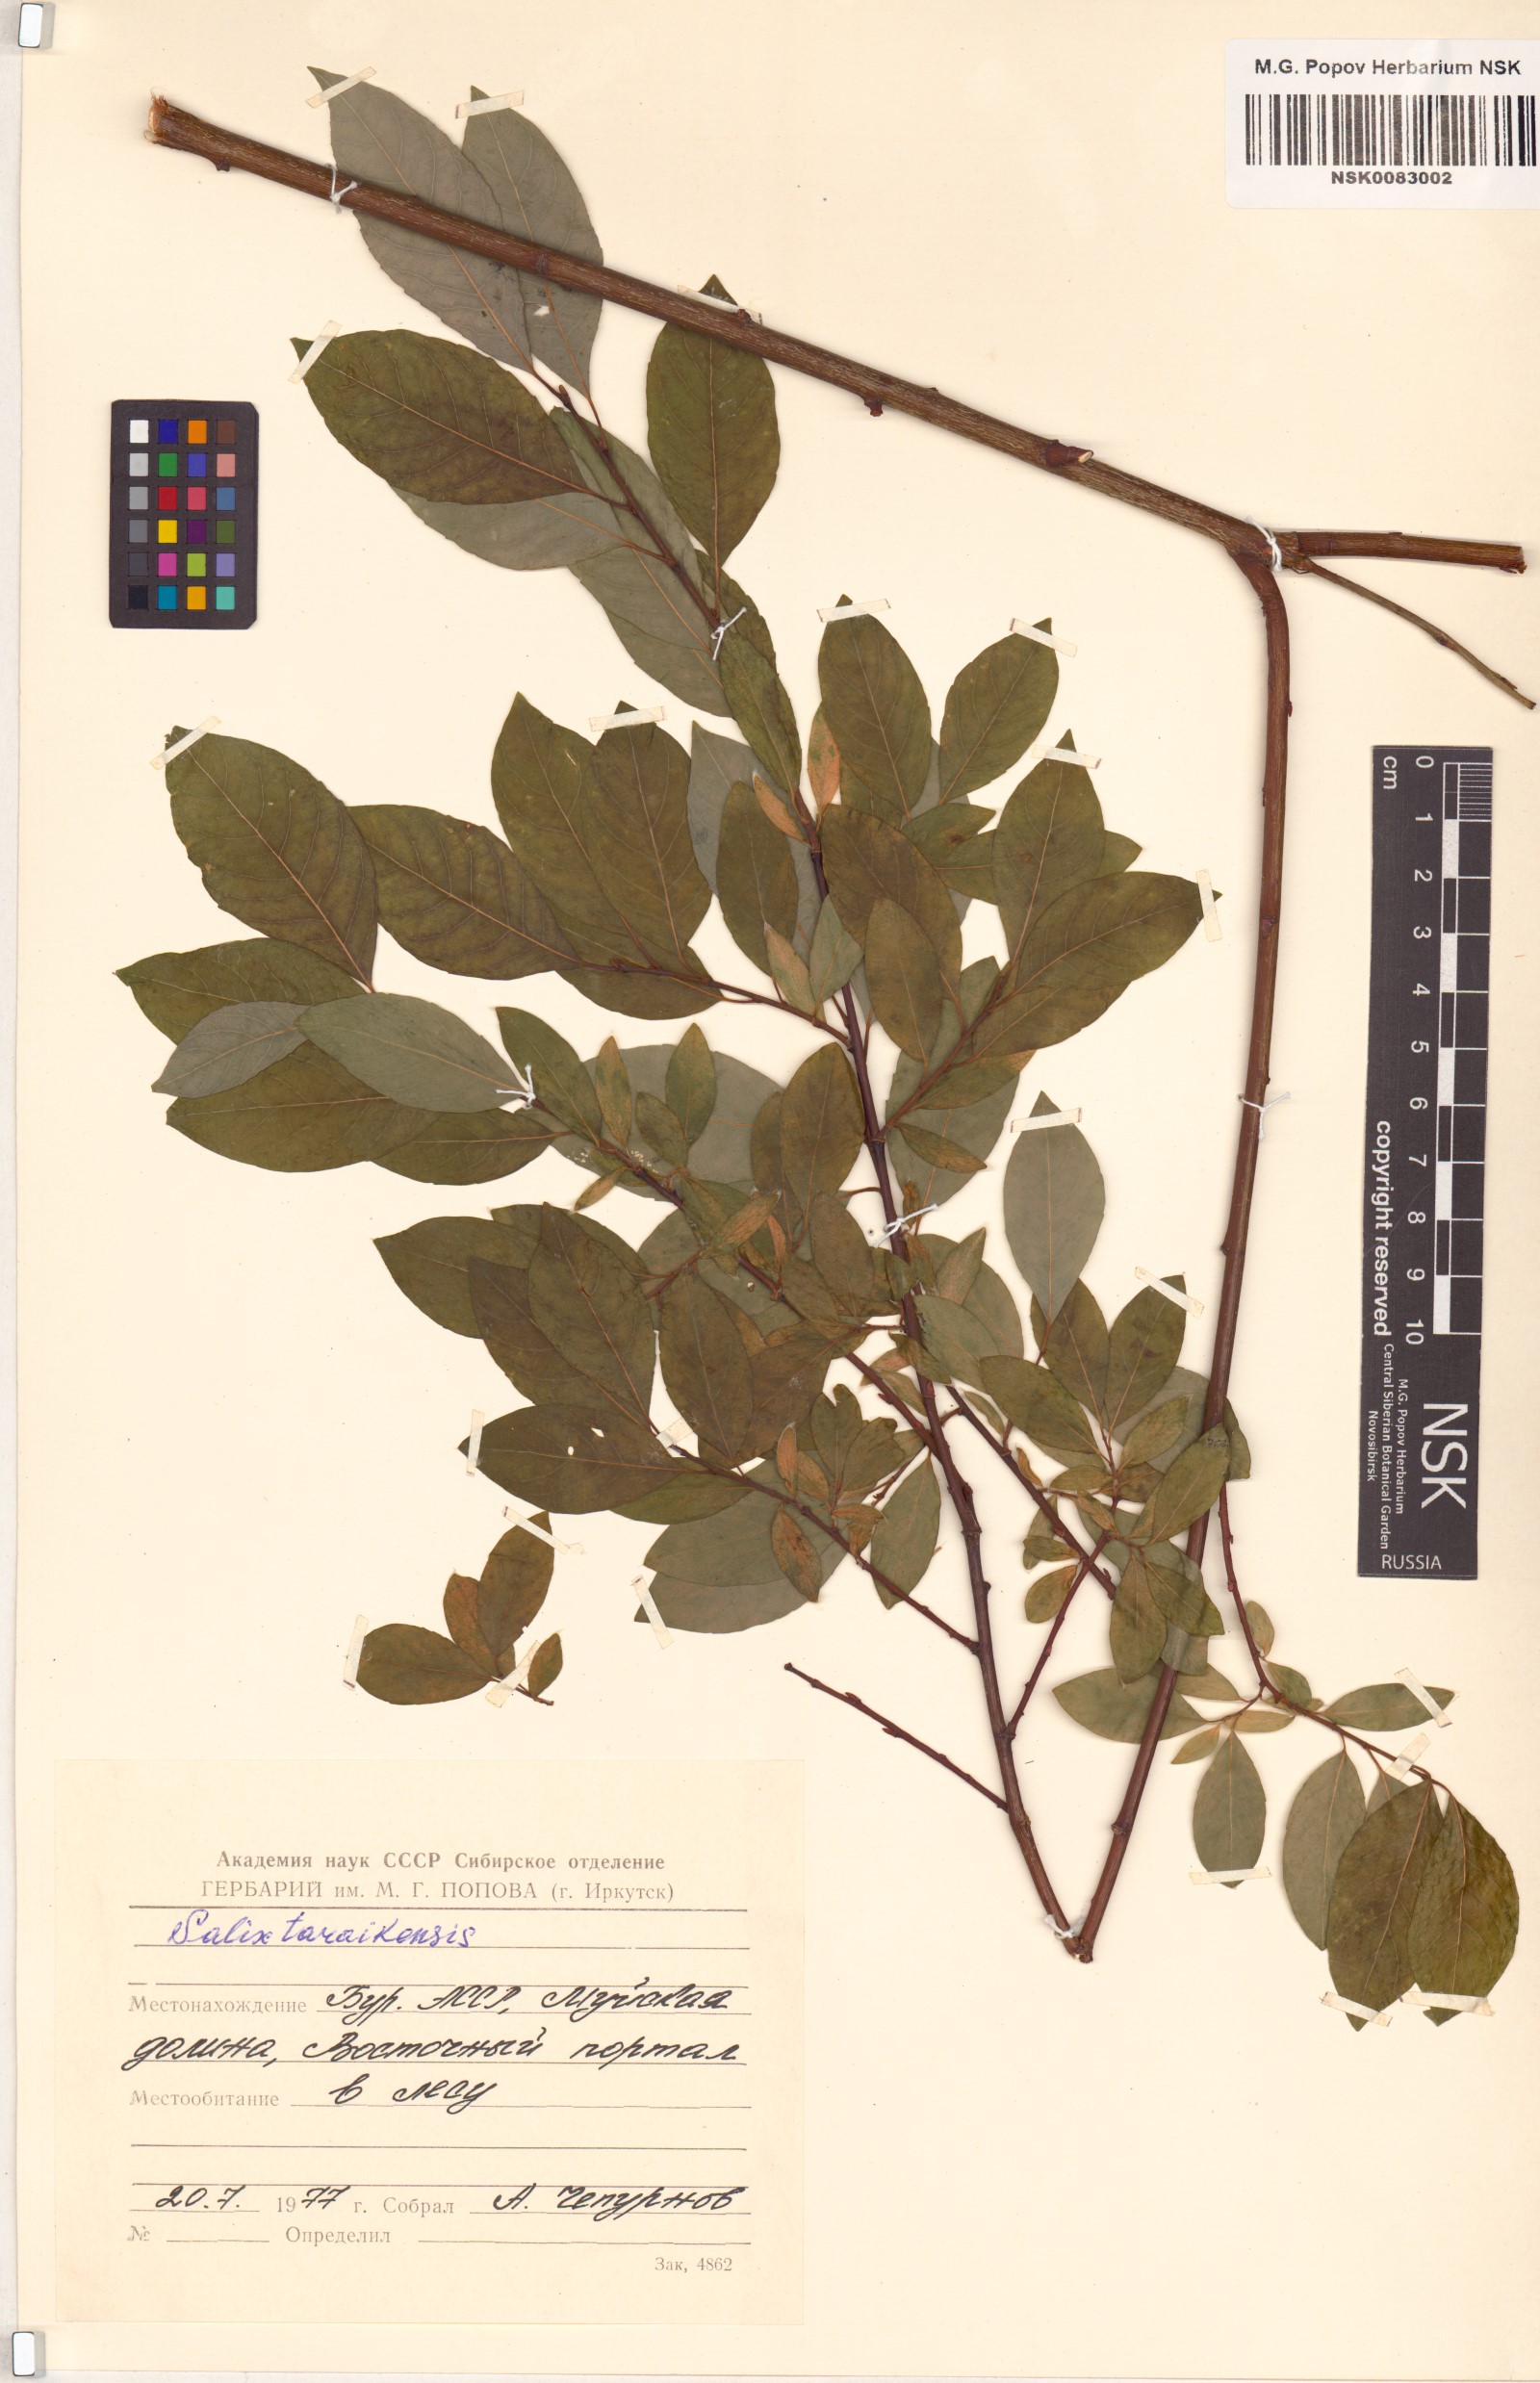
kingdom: Plantae
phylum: Tracheophyta
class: Magnoliopsida
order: Malpighiales
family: Salicaceae
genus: Salix
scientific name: Salix taraikensis
